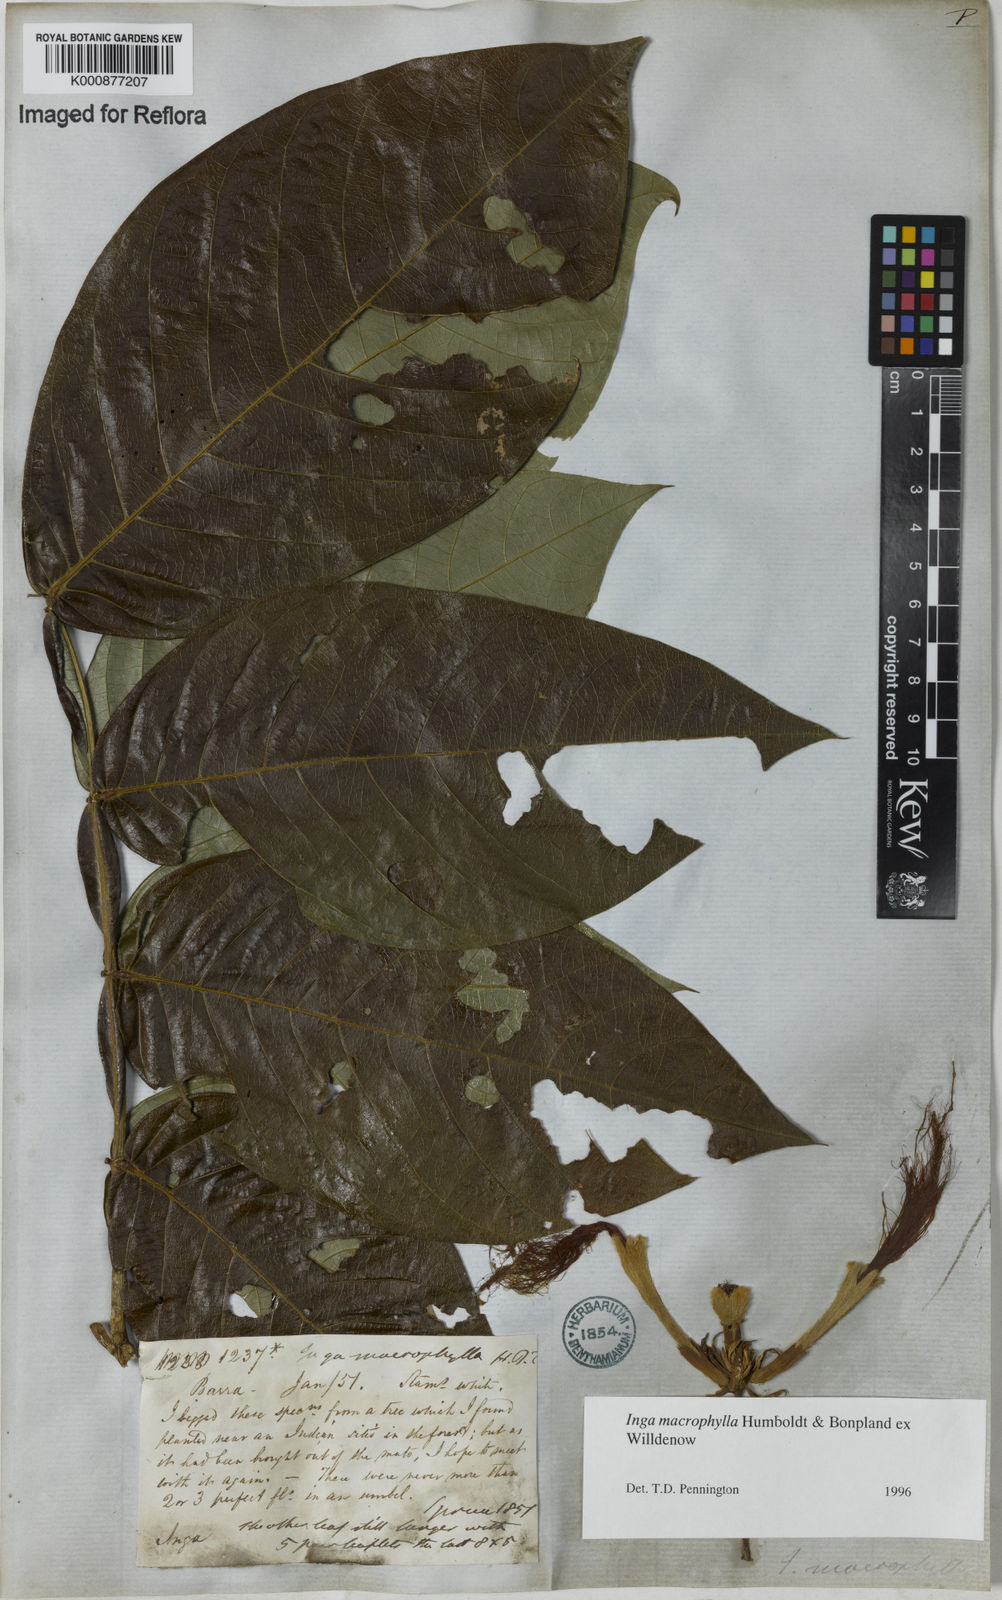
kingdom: Plantae
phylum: Tracheophyta
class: Magnoliopsida
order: Fabales
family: Fabaceae
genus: Inga
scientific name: Inga macrophylla
